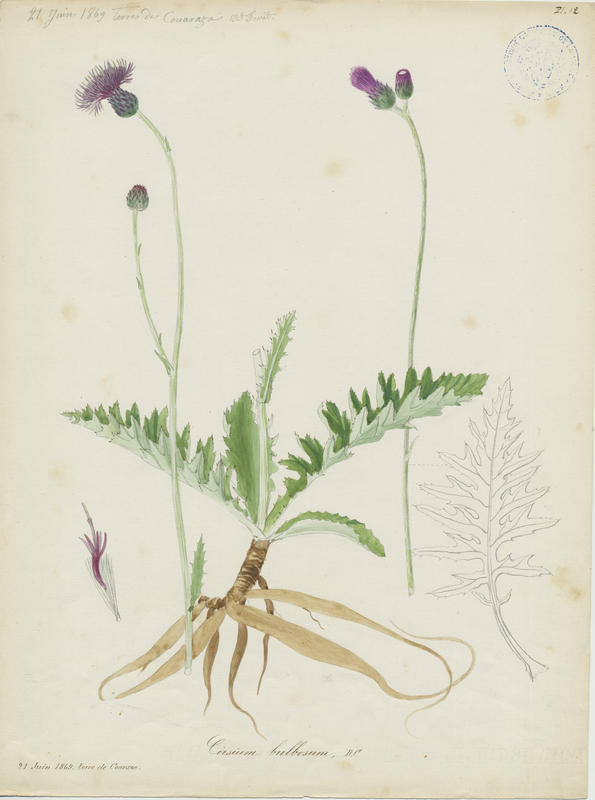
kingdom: Plantae
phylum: Tracheophyta
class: Magnoliopsida
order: Asterales
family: Asteraceae
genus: Cirsium
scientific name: Cirsium filipendulum
